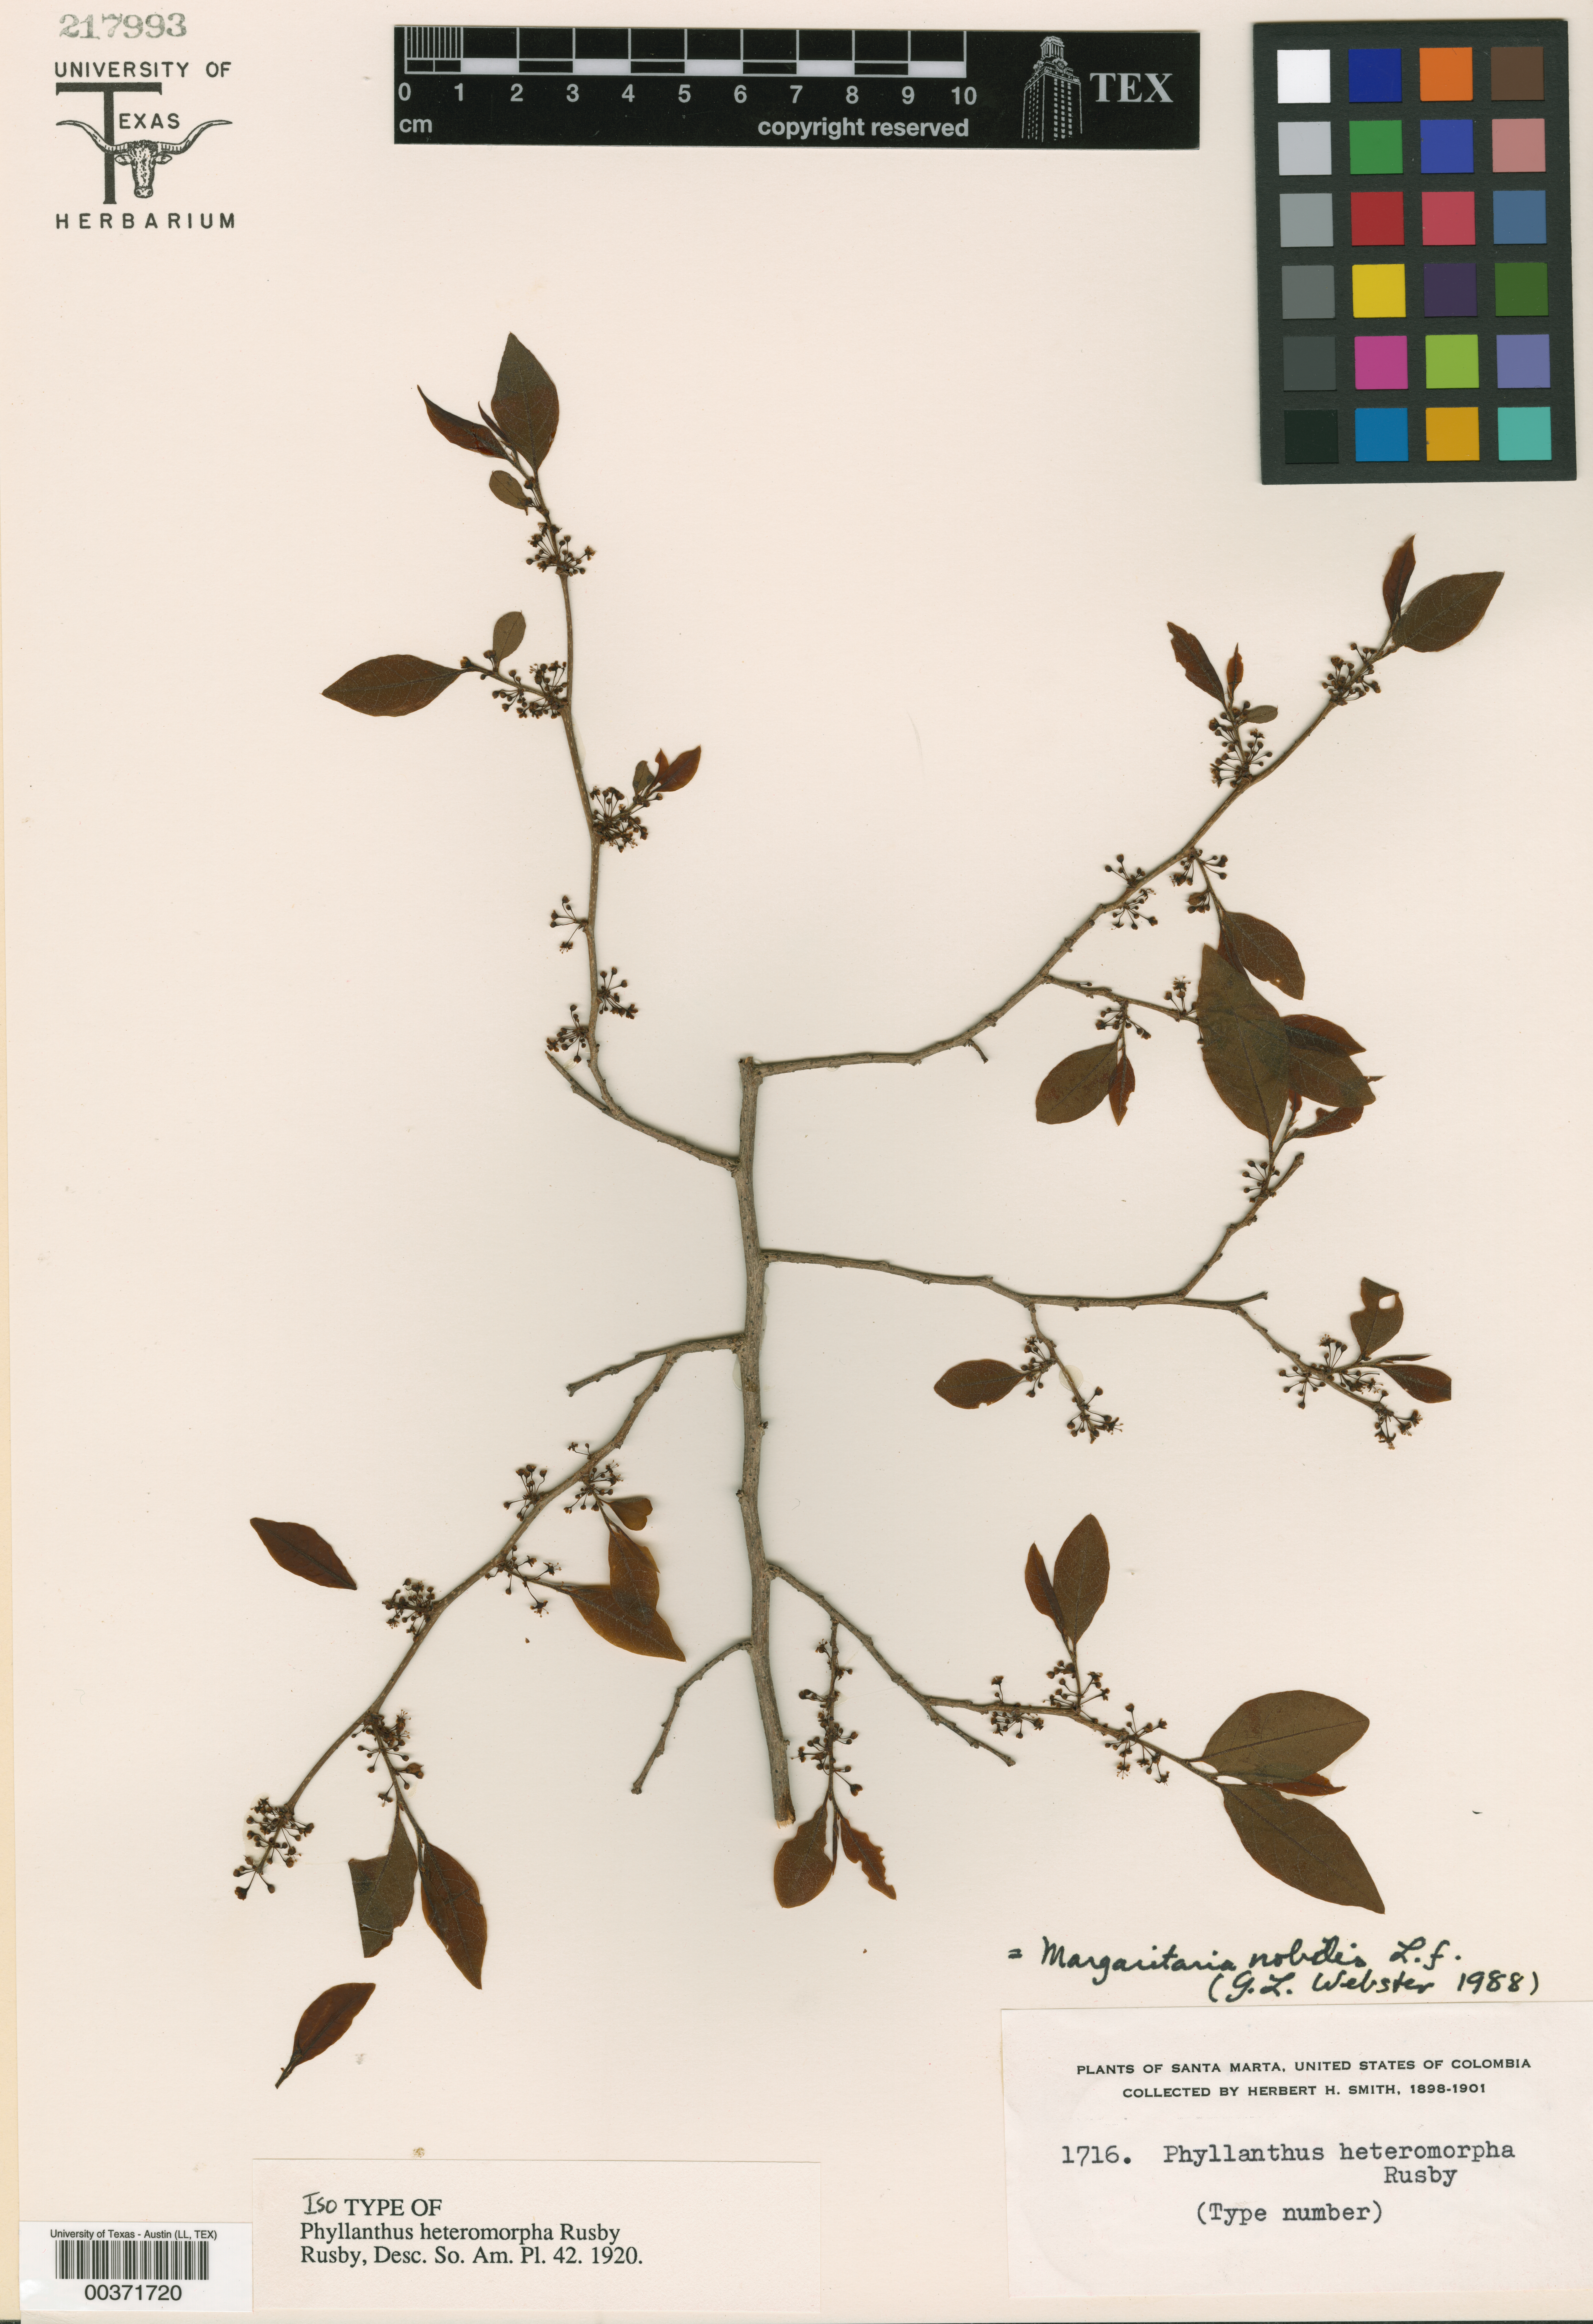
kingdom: Plantae
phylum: Tracheophyta
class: Magnoliopsida
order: Malpighiales
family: Phyllanthaceae
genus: Margaritaria
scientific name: Margaritaria nobilis
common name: Goose berry
